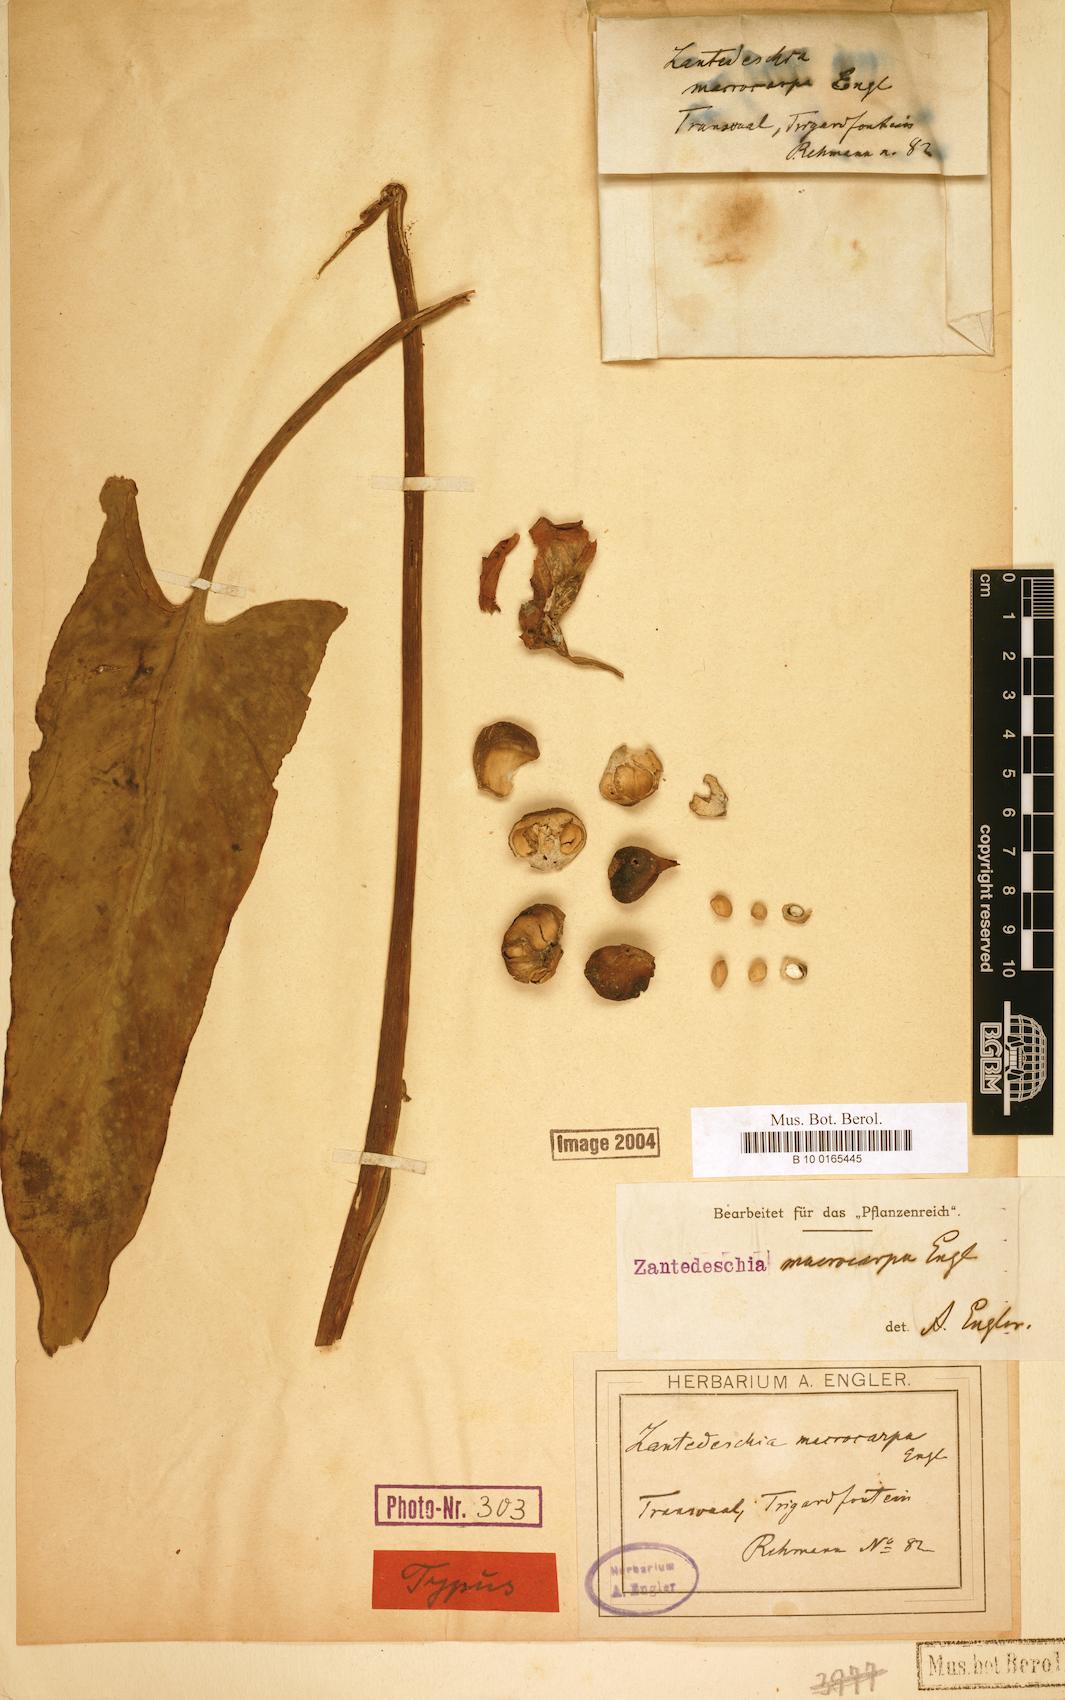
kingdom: Plantae
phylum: Tracheophyta
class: Liliopsida
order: Alismatales
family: Araceae
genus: Zantedeschia
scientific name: Zantedeschia albomaculata
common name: Spotted calla lily
